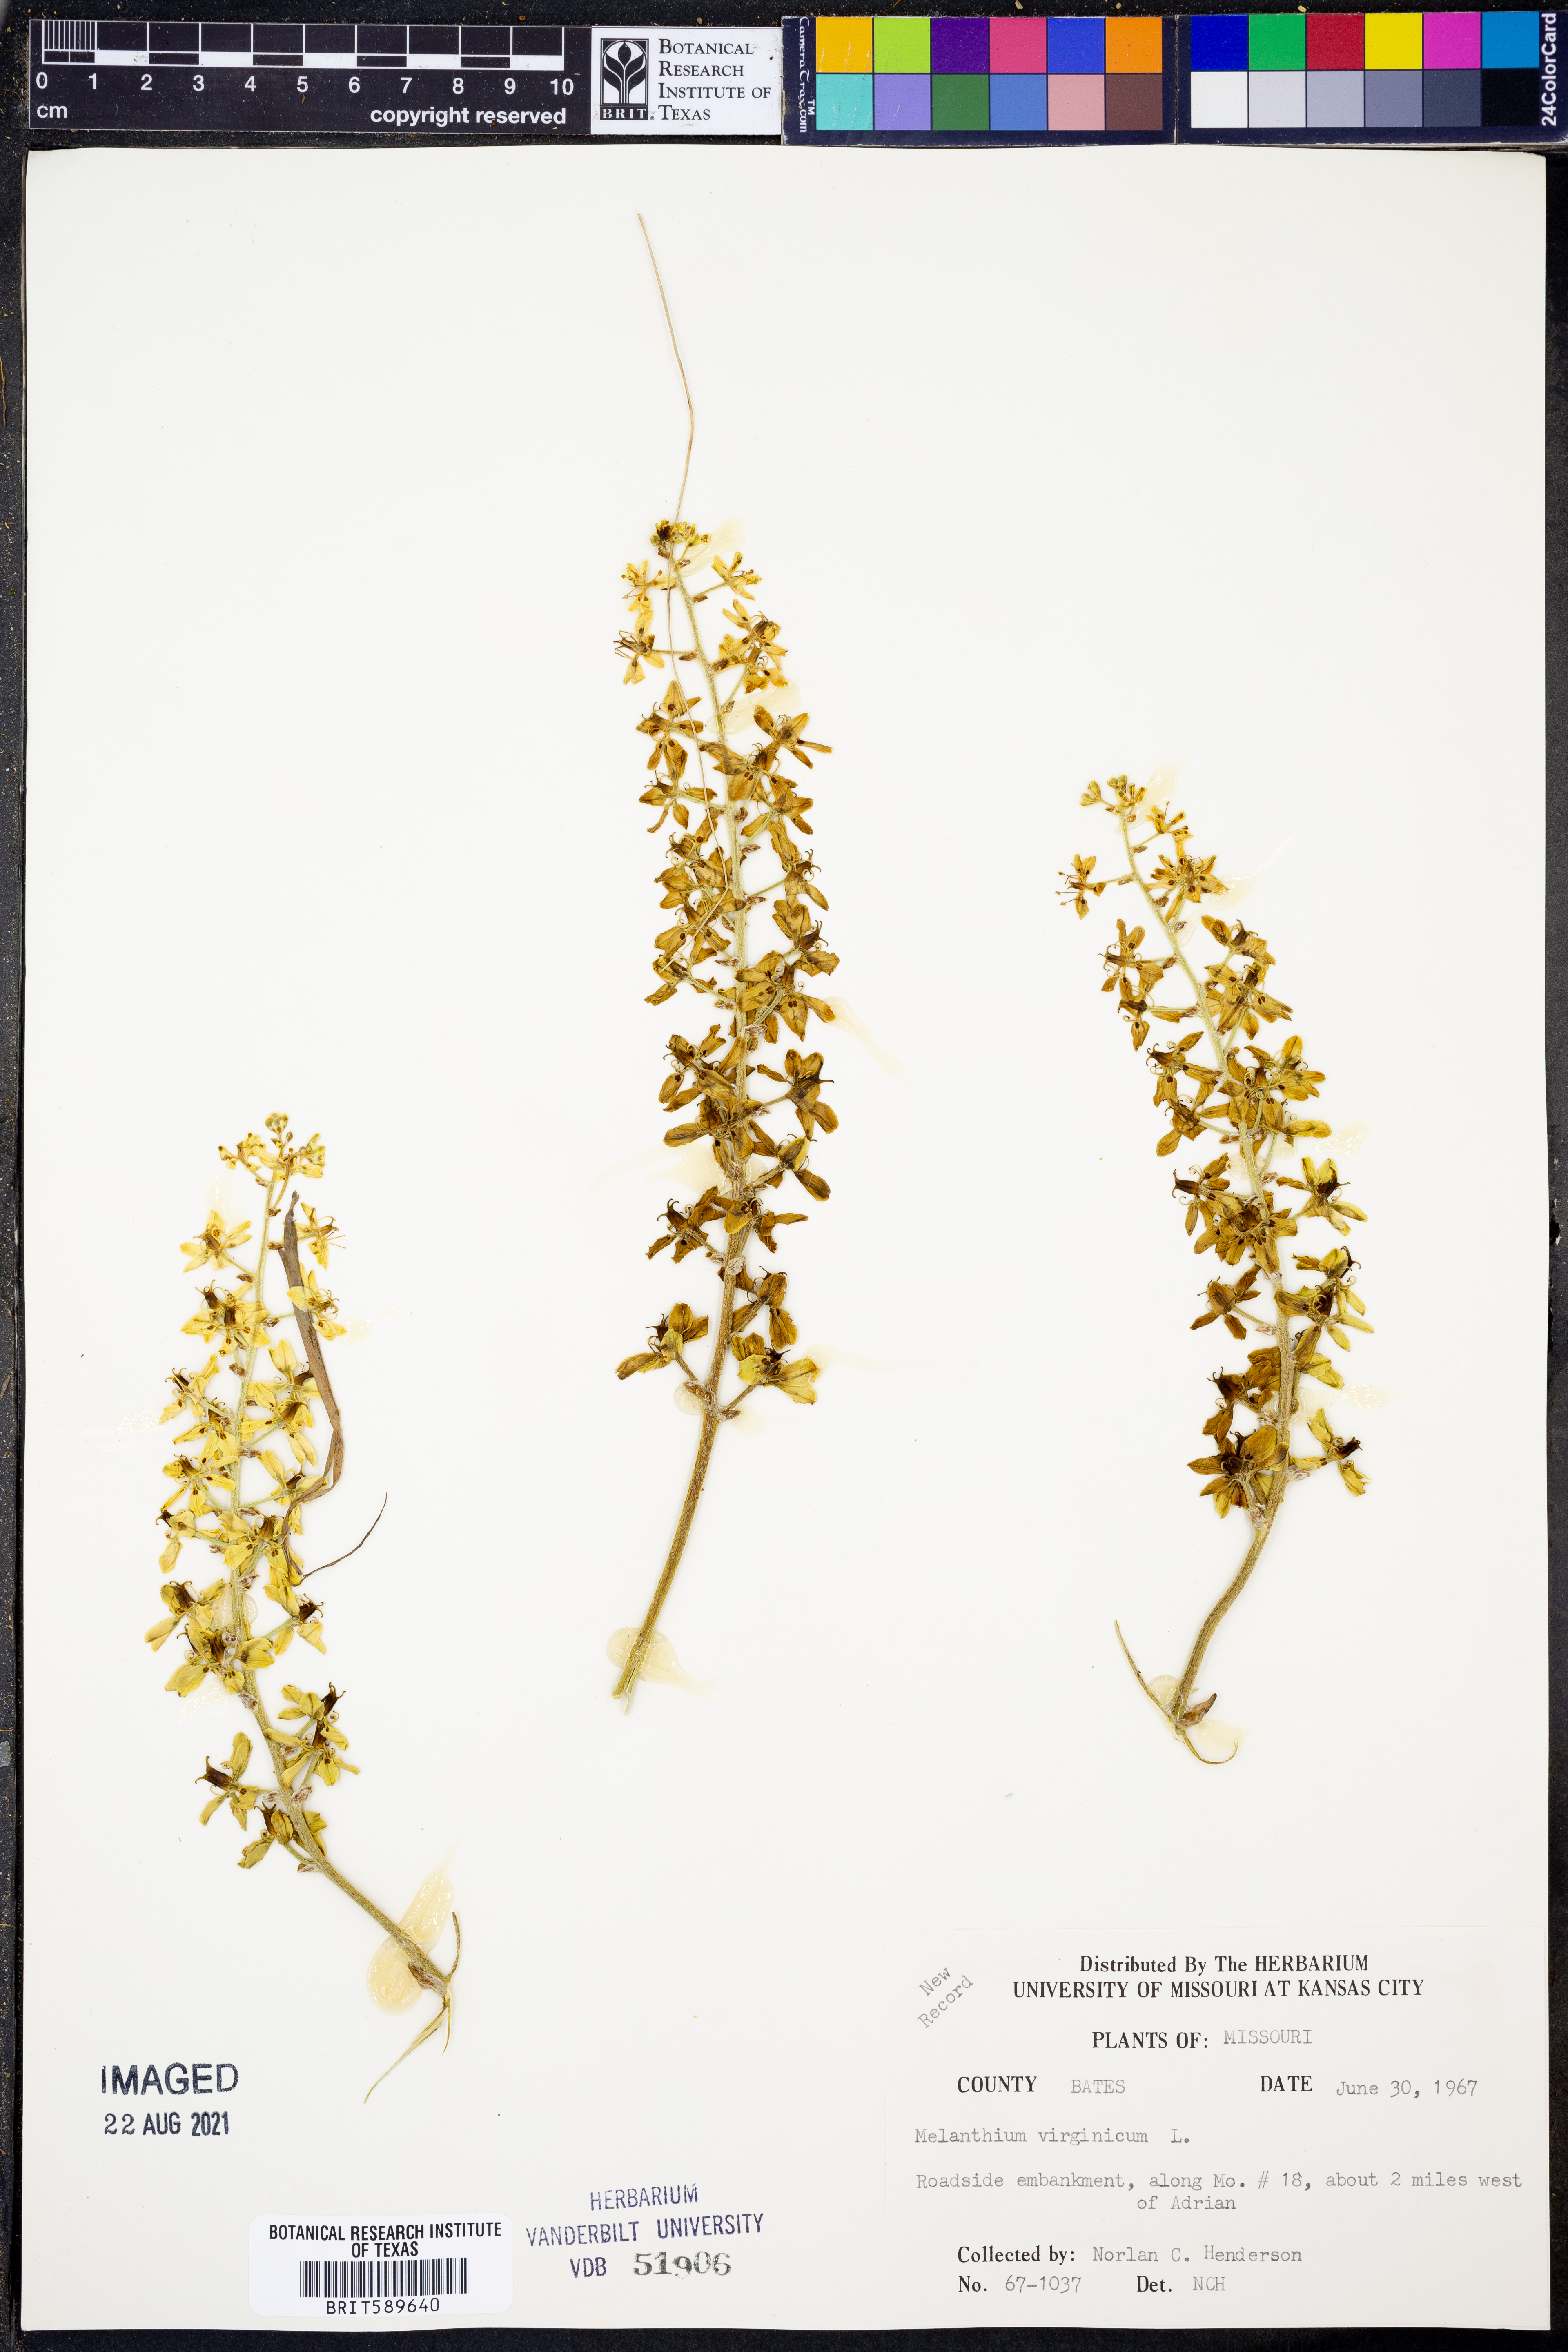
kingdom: Plantae
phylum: Tracheophyta
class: Liliopsida
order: Liliales
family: Melanthiaceae
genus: Melanthium
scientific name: Melanthium virginicum
